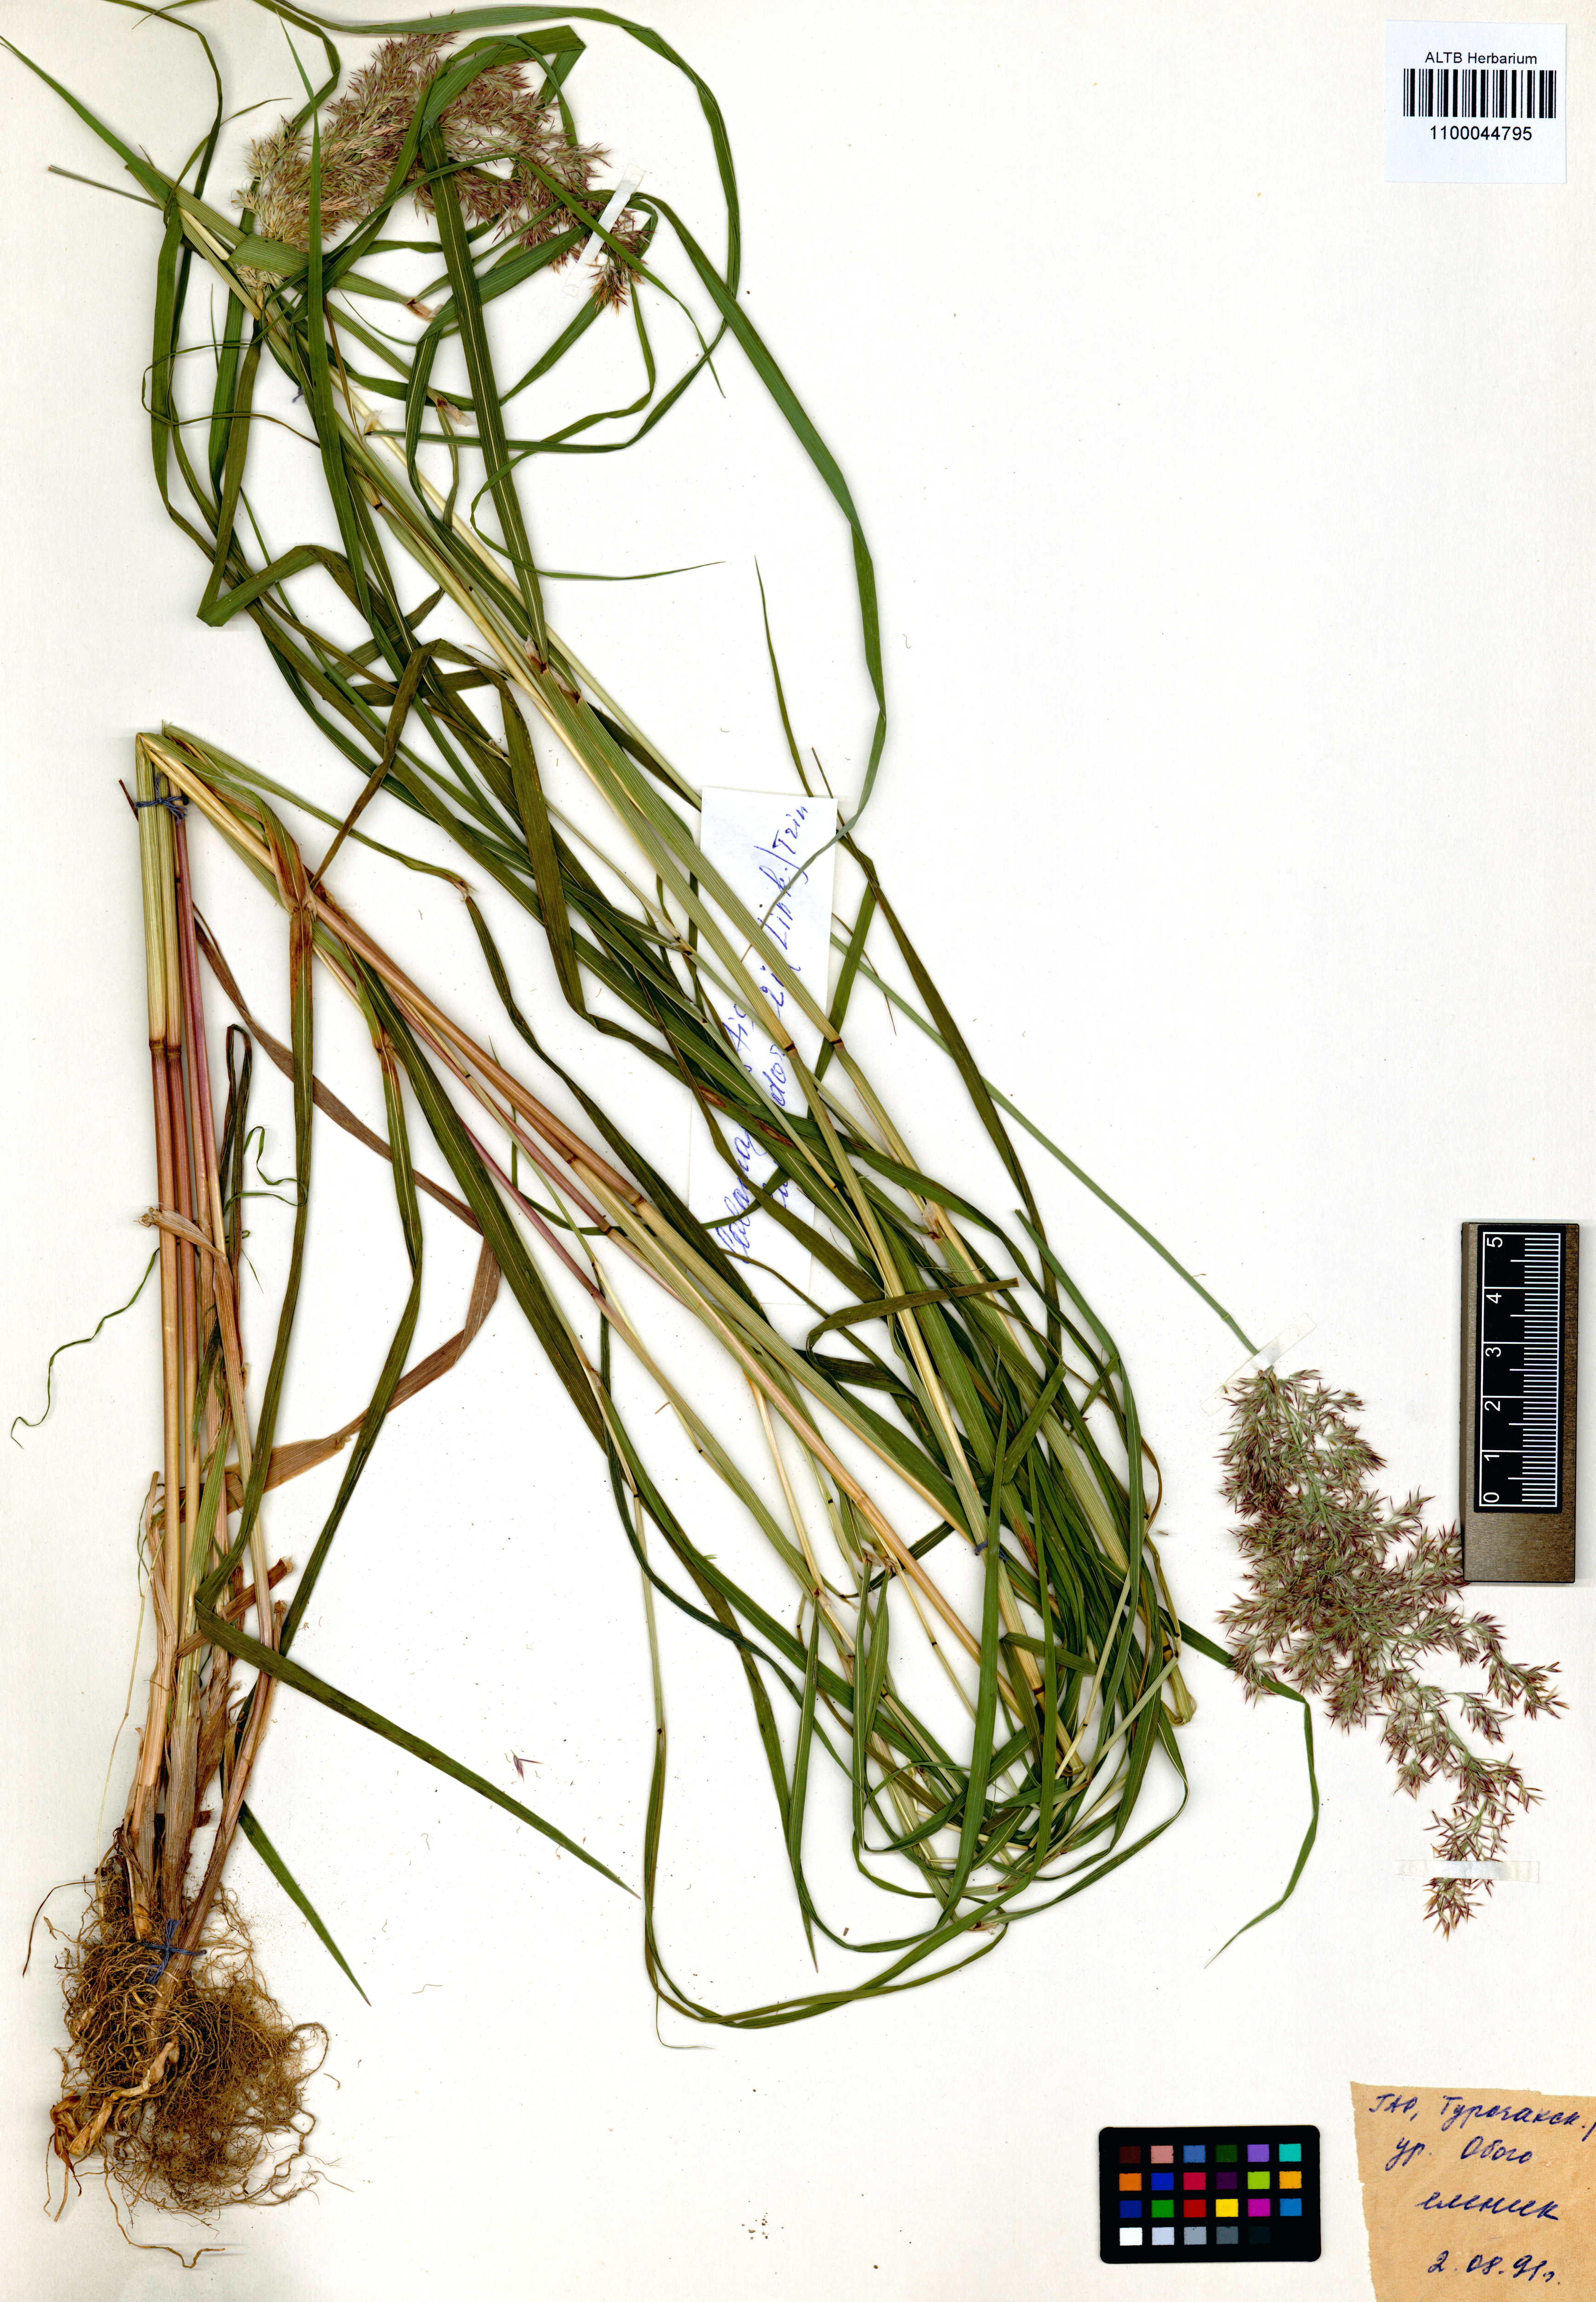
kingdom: Plantae
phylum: Tracheophyta
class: Liliopsida
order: Poales
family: Poaceae
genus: Calamagrostis
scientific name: Calamagrostis purpurea
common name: Scandinavian small-reed
